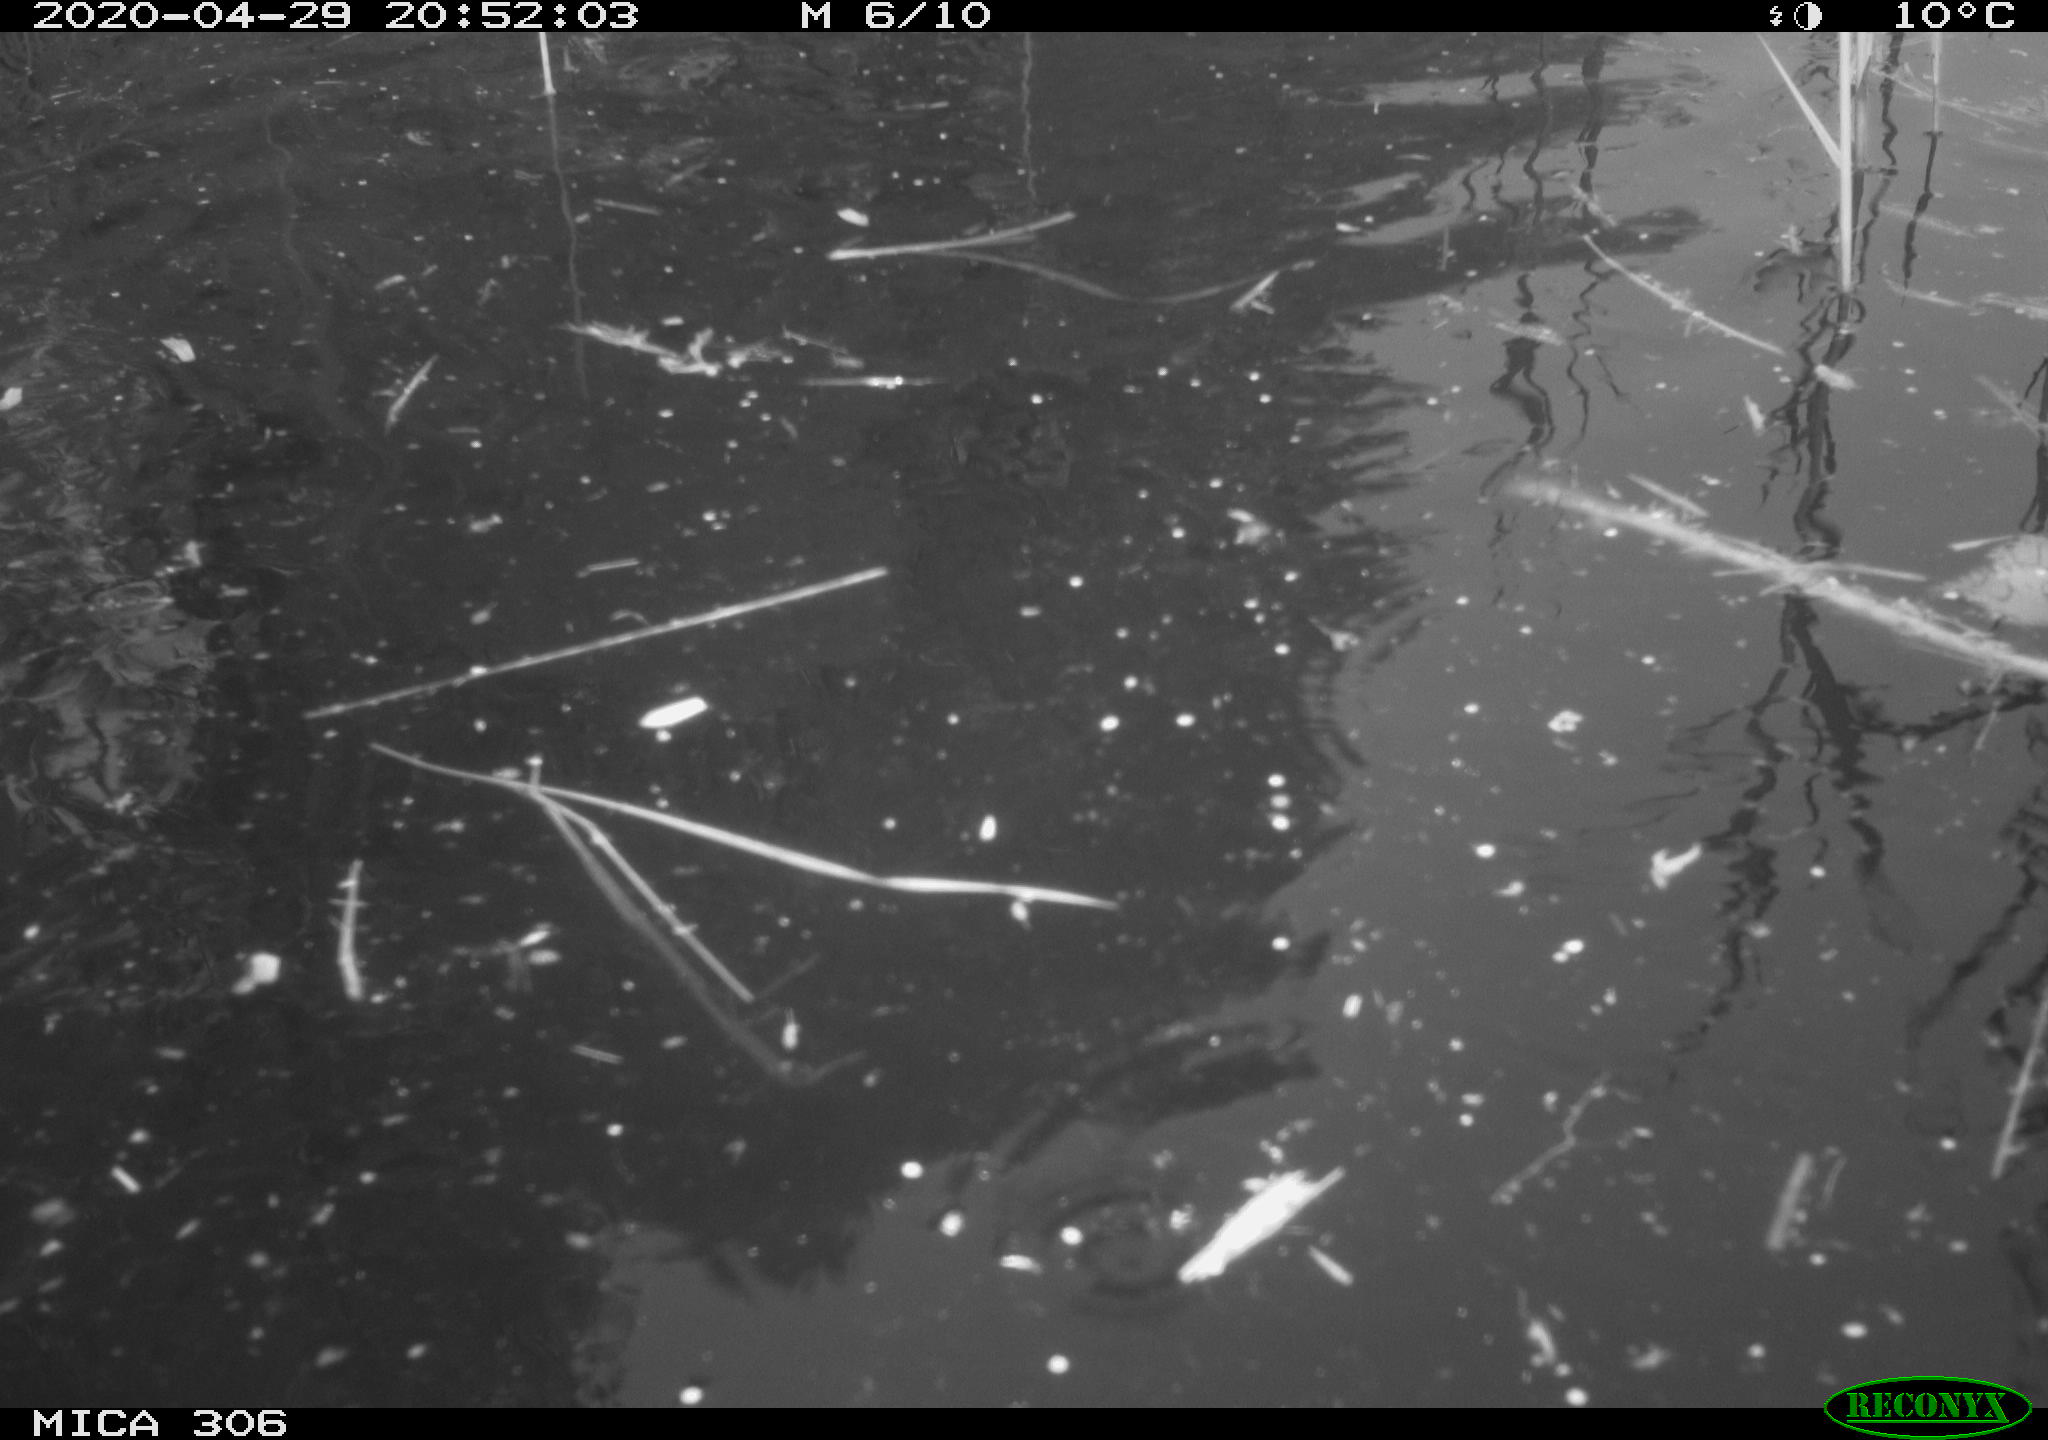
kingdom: Animalia
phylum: Chordata
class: Mammalia
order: Rodentia
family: Cricetidae
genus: Ondatra
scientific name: Ondatra zibethicus
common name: Muskrat
